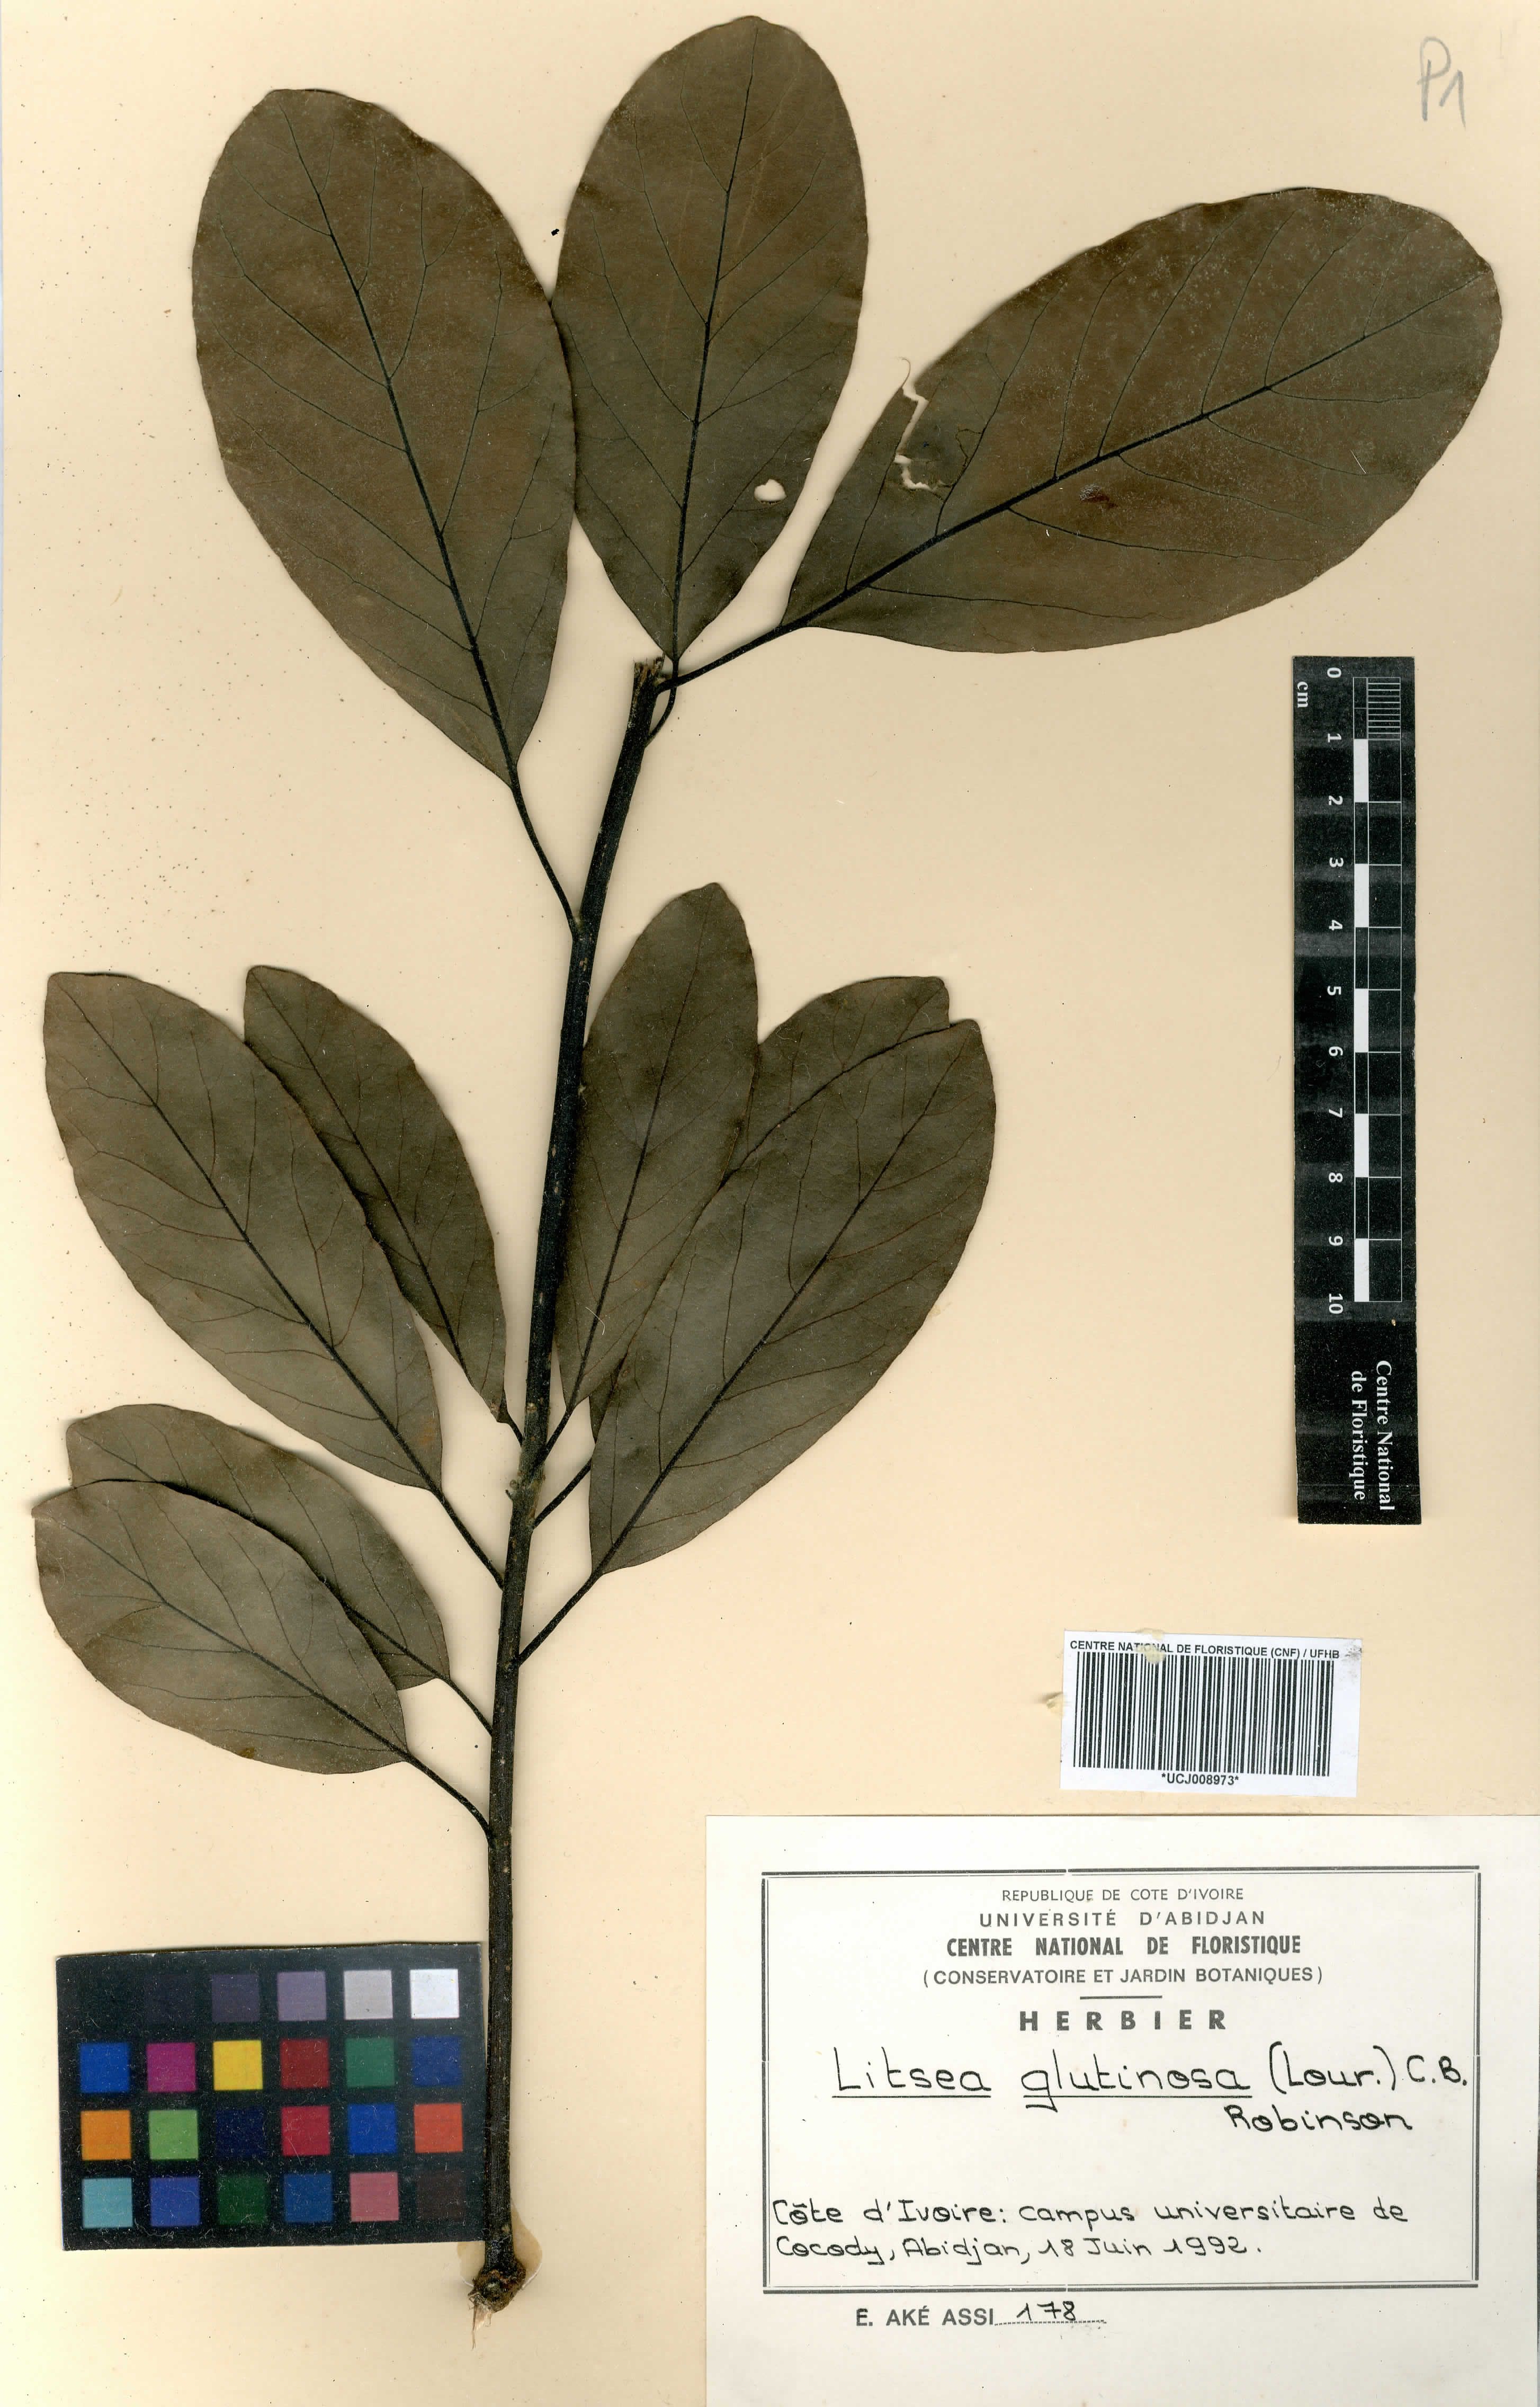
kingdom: Plantae
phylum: Tracheophyta
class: Magnoliopsida
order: Laurales
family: Lauraceae
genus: Litsea
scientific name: Litsea glutinosa
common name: Indian-laurel
